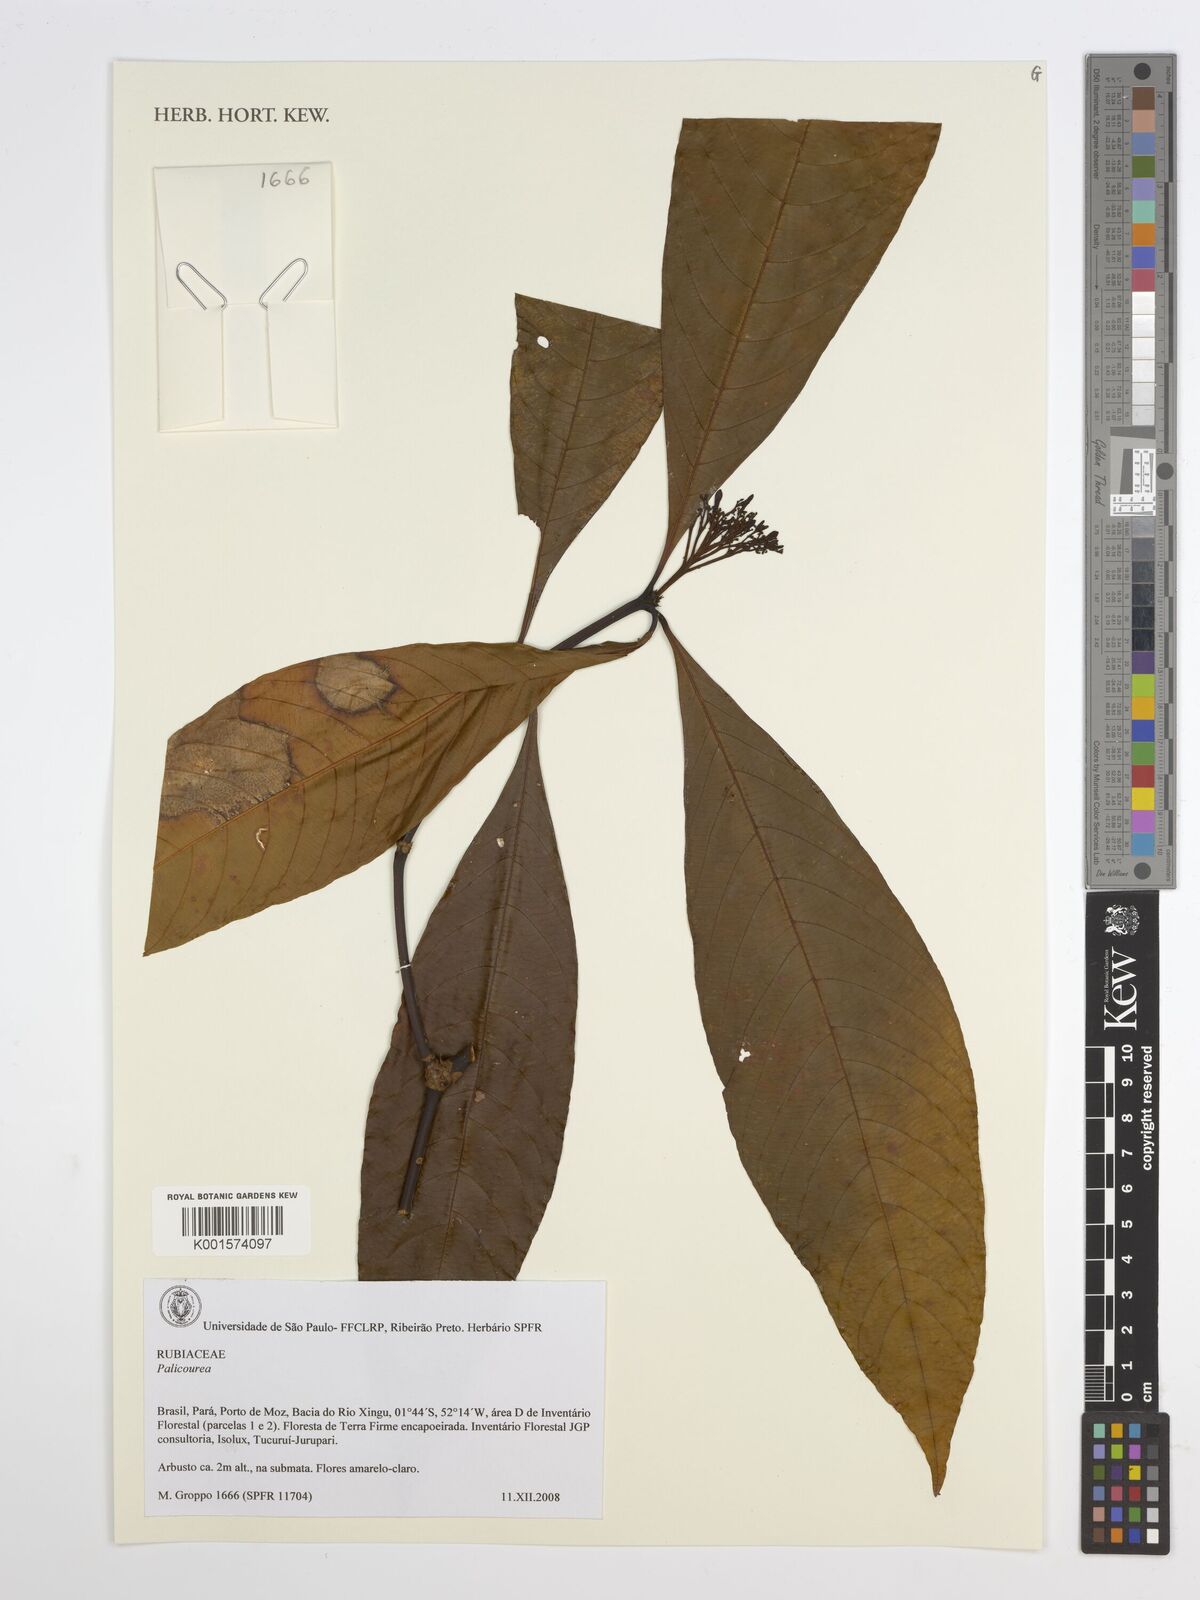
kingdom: Plantae
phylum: Tracheophyta
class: Magnoliopsida
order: Gentianales
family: Rubiaceae
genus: Palicourea
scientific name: Palicourea
